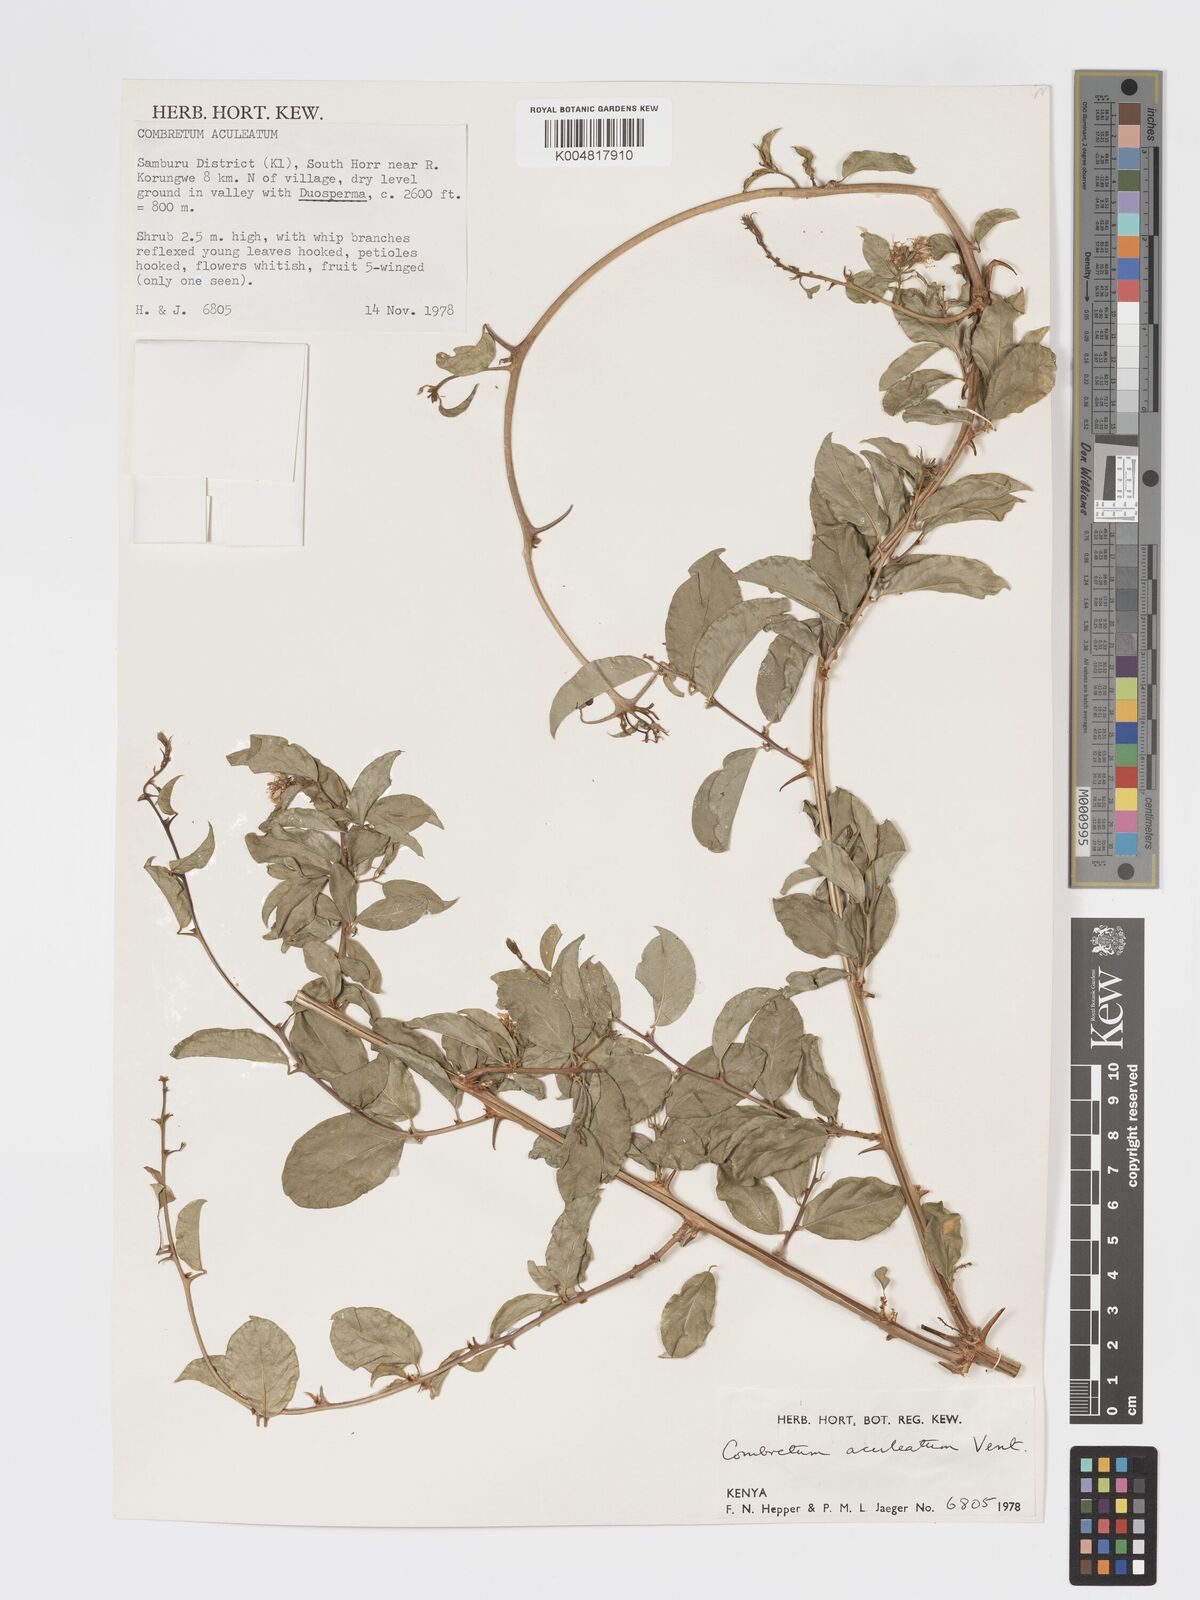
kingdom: Plantae
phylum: Tracheophyta
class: Magnoliopsida
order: Myrtales
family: Combretaceae
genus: Combretum
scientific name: Combretum aculeatum
